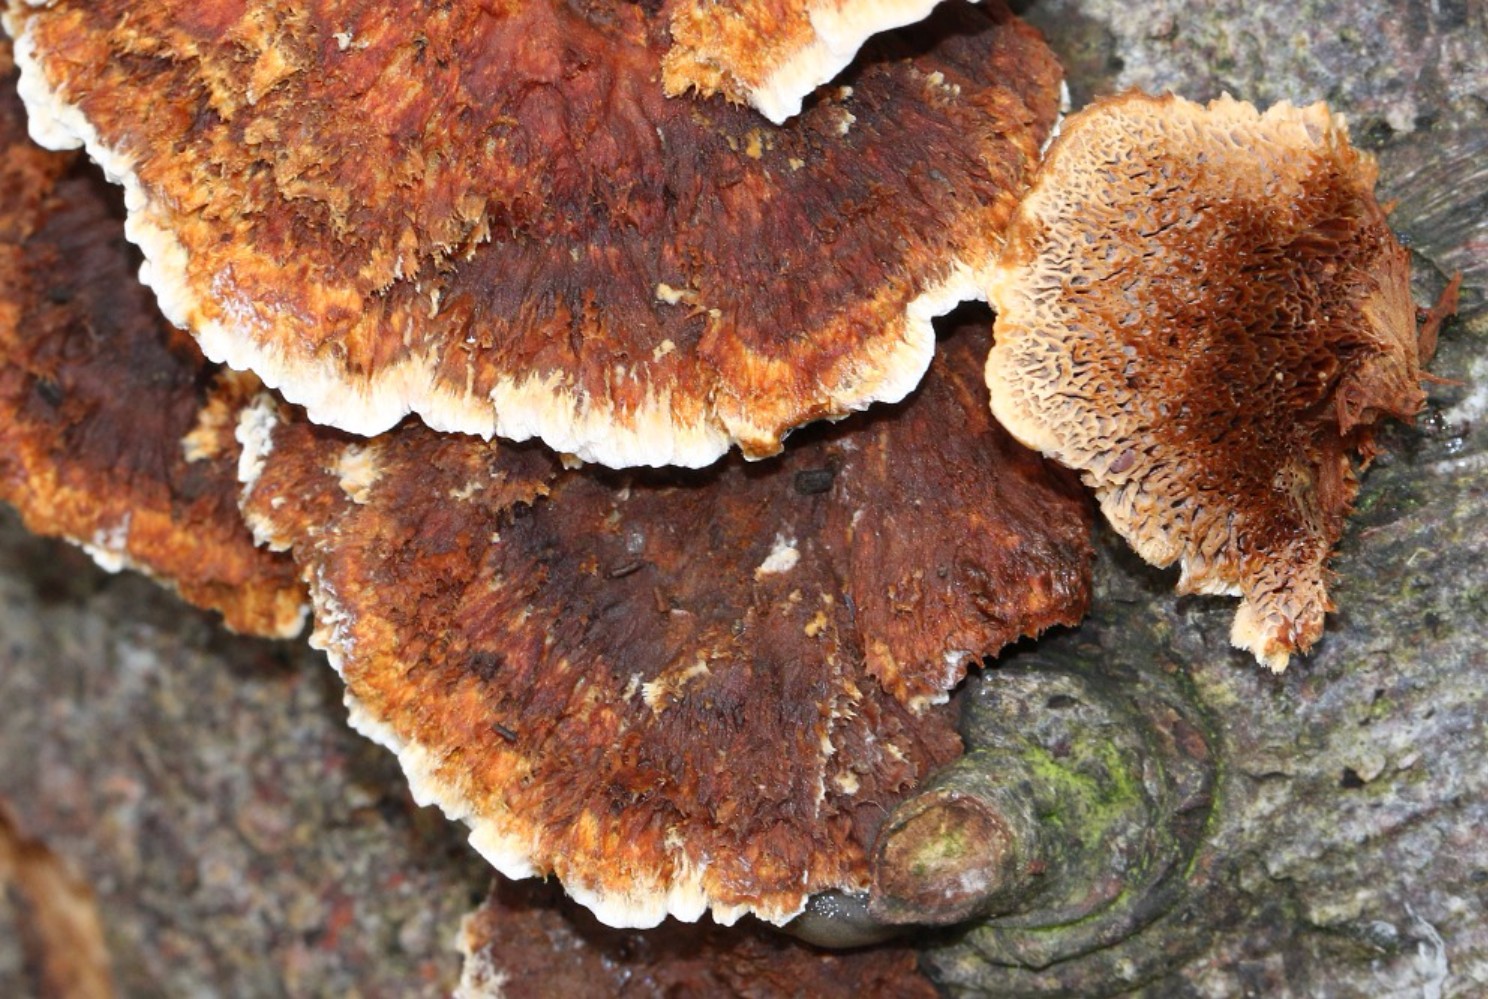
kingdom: Fungi
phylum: Basidiomycota
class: Agaricomycetes
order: Hymenochaetales
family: Hymenochaetaceae
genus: Mensularia
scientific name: Mensularia nodulosa
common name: bøge-spejlporesvamp
